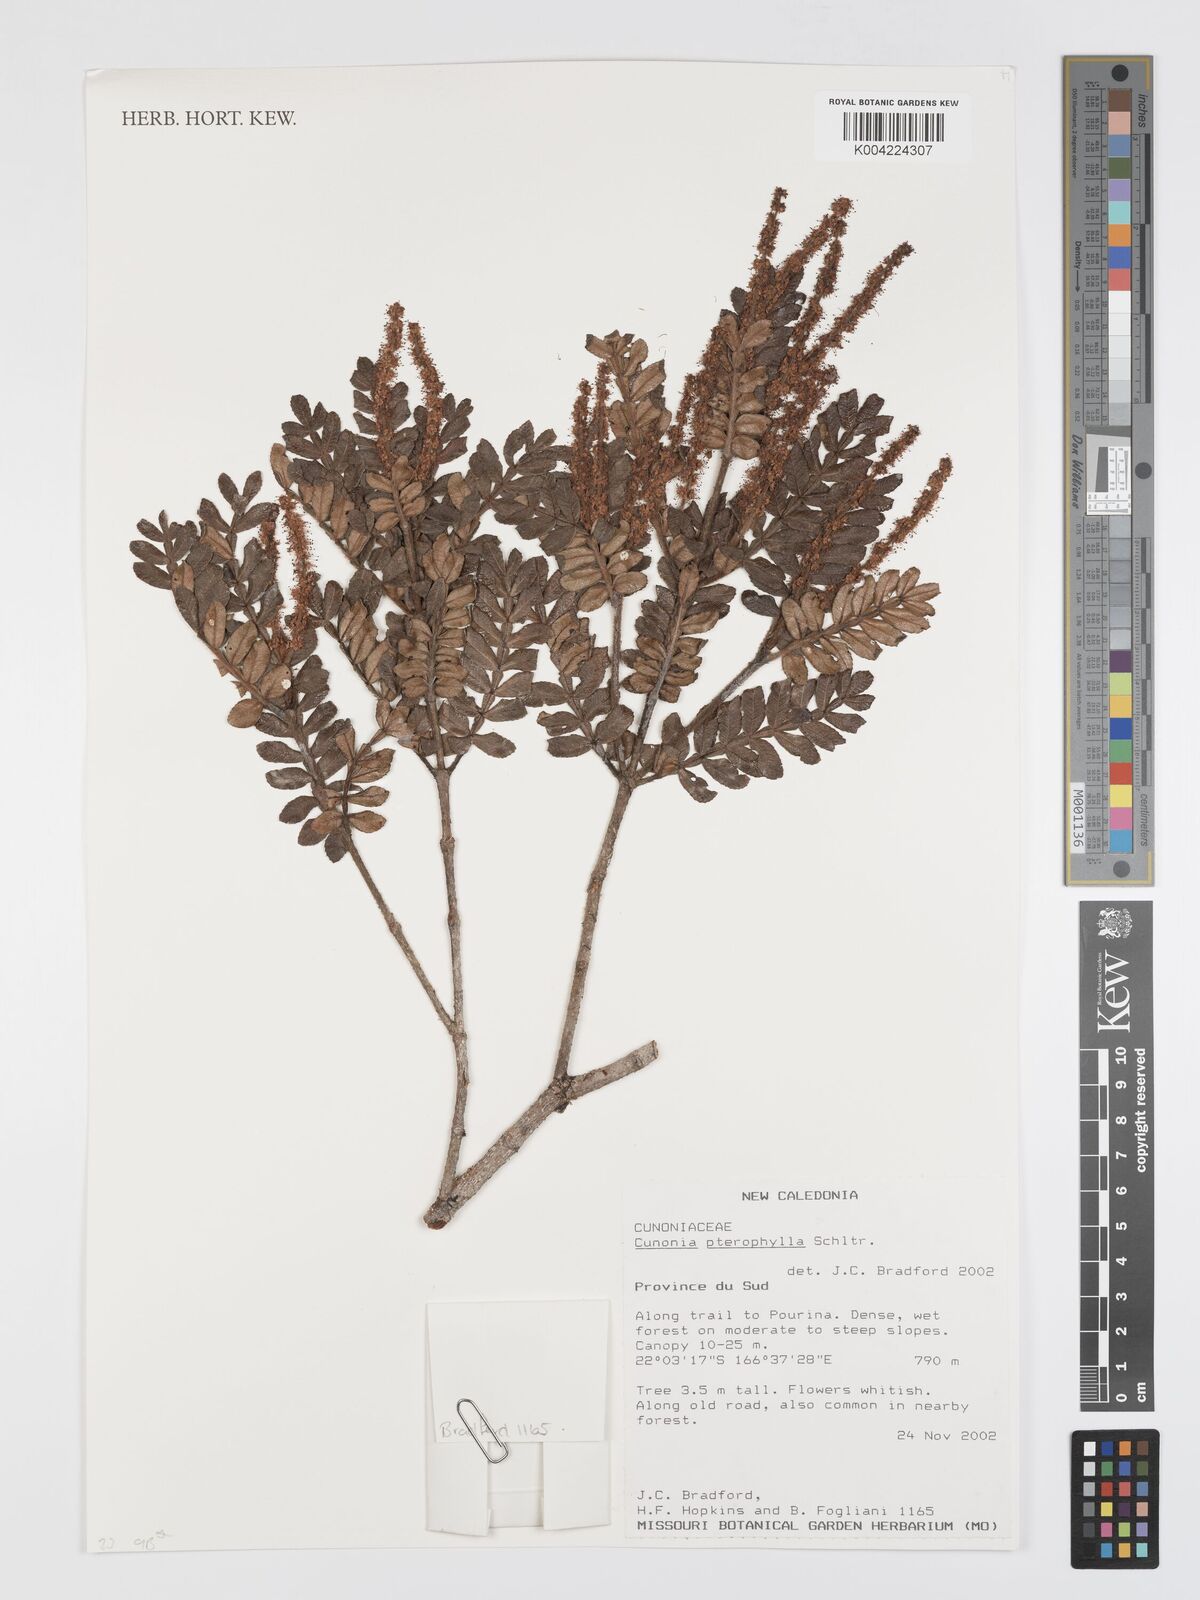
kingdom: Plantae
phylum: Tracheophyta
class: Magnoliopsida
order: Oxalidales
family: Cunoniaceae
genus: Cunonia
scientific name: Cunonia pterophylla
